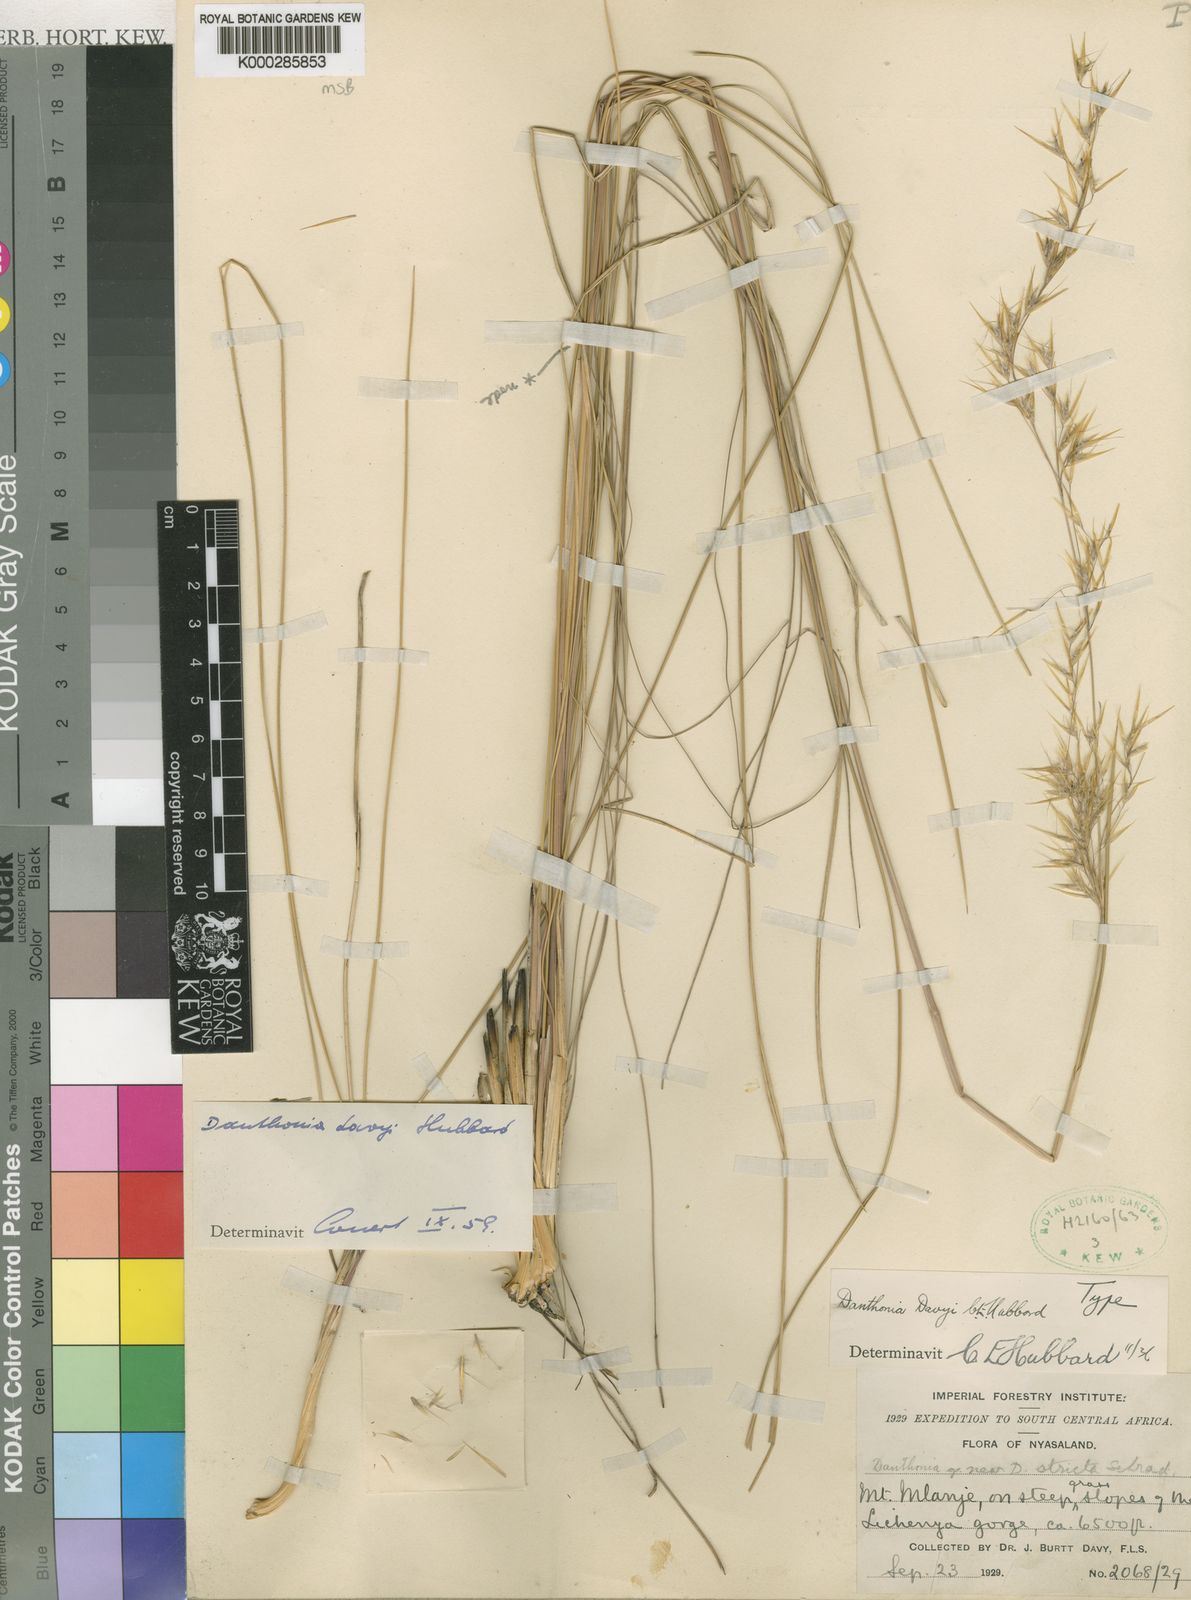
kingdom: Plantae
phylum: Tracheophyta
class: Liliopsida
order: Poales
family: Poaceae
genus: Merxmuellera
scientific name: Merxmuellera davyi
